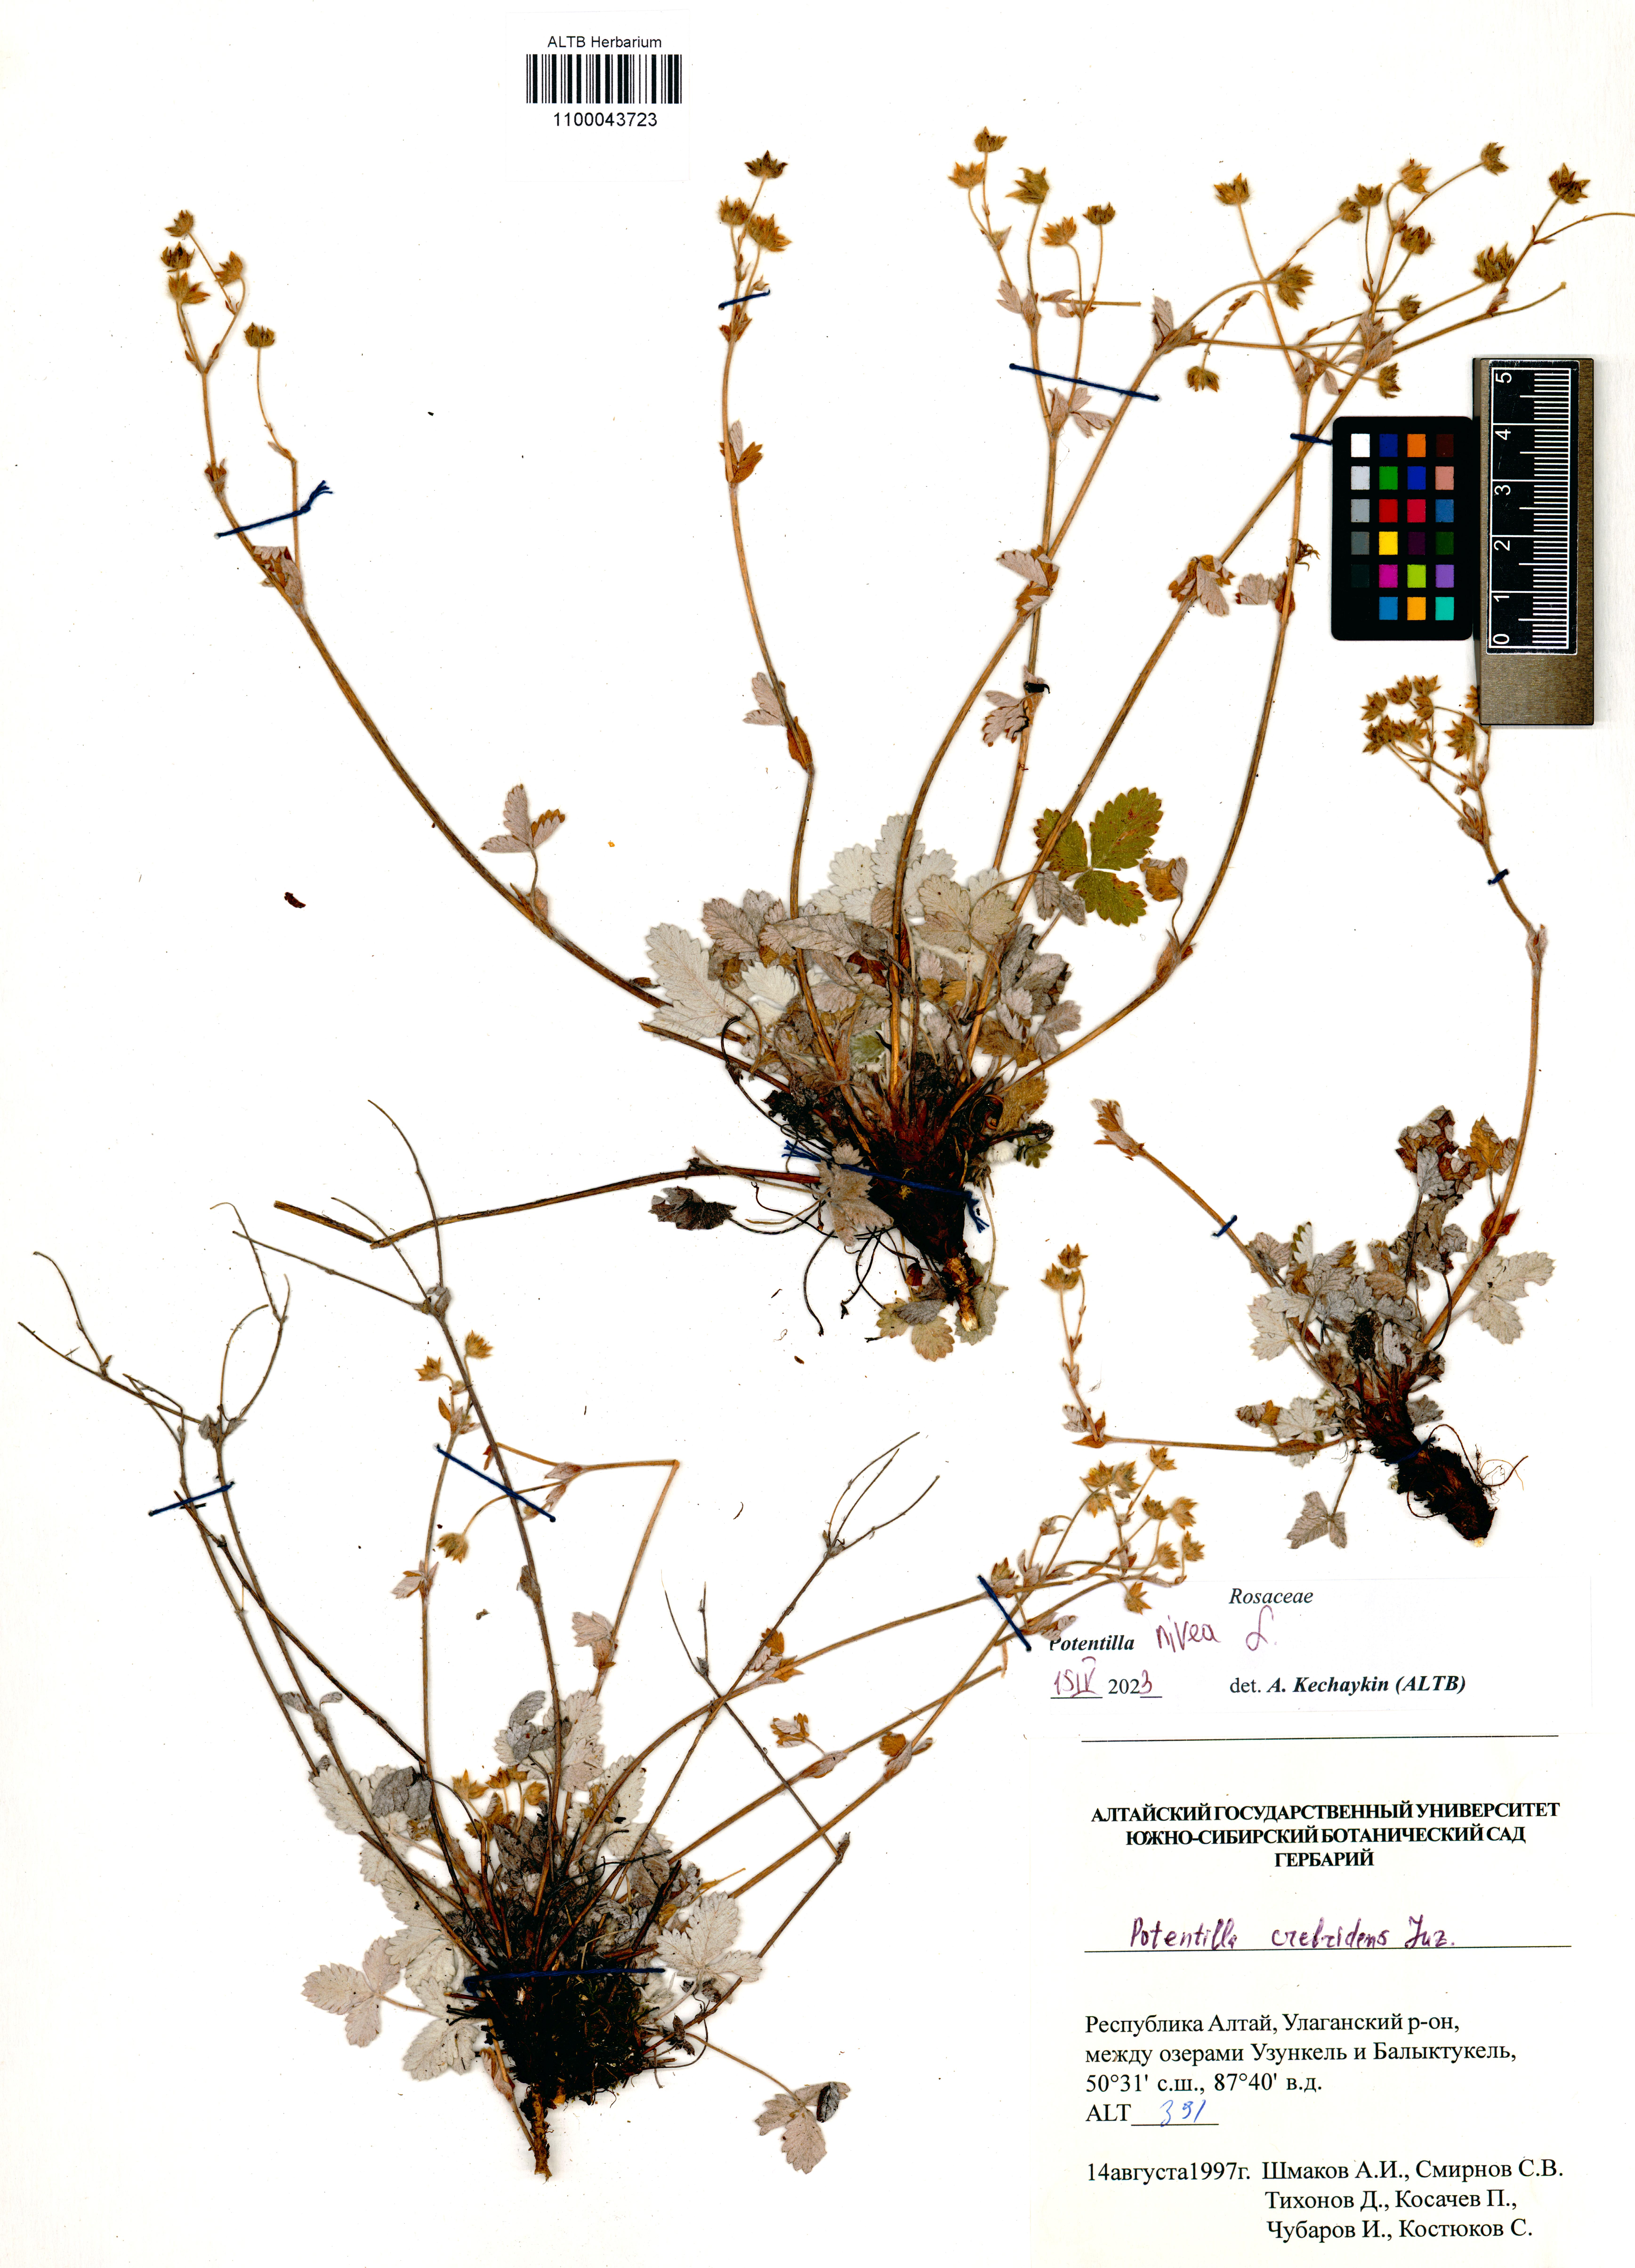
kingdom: Plantae
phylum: Tracheophyta
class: Magnoliopsida
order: Rosales
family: Rosaceae
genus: Potentilla
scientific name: Potentilla nivea
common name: Snow cinquefoil
